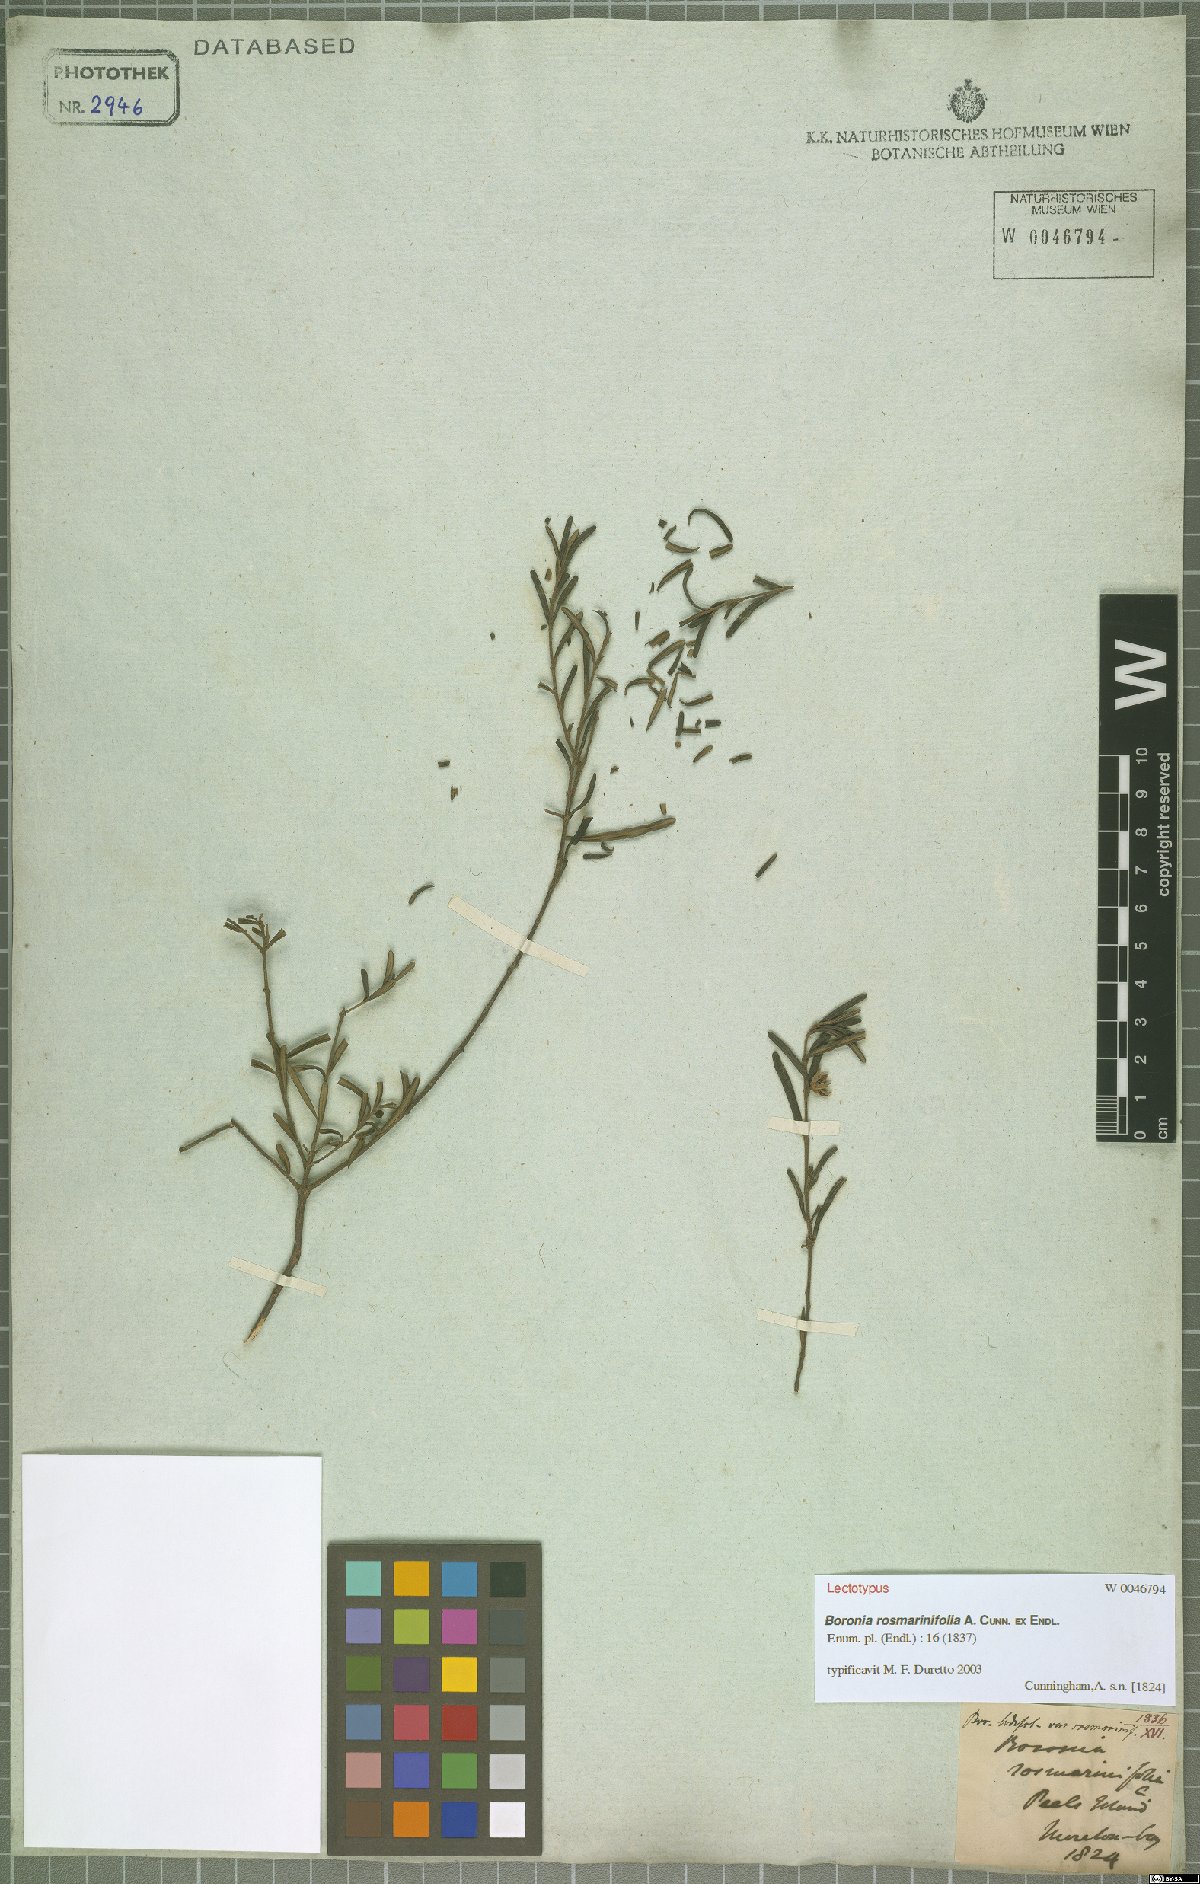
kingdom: Plantae
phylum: Tracheophyta
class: Magnoliopsida
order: Sapindales
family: Rutaceae
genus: Boronia
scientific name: Boronia rosmarinifolia
